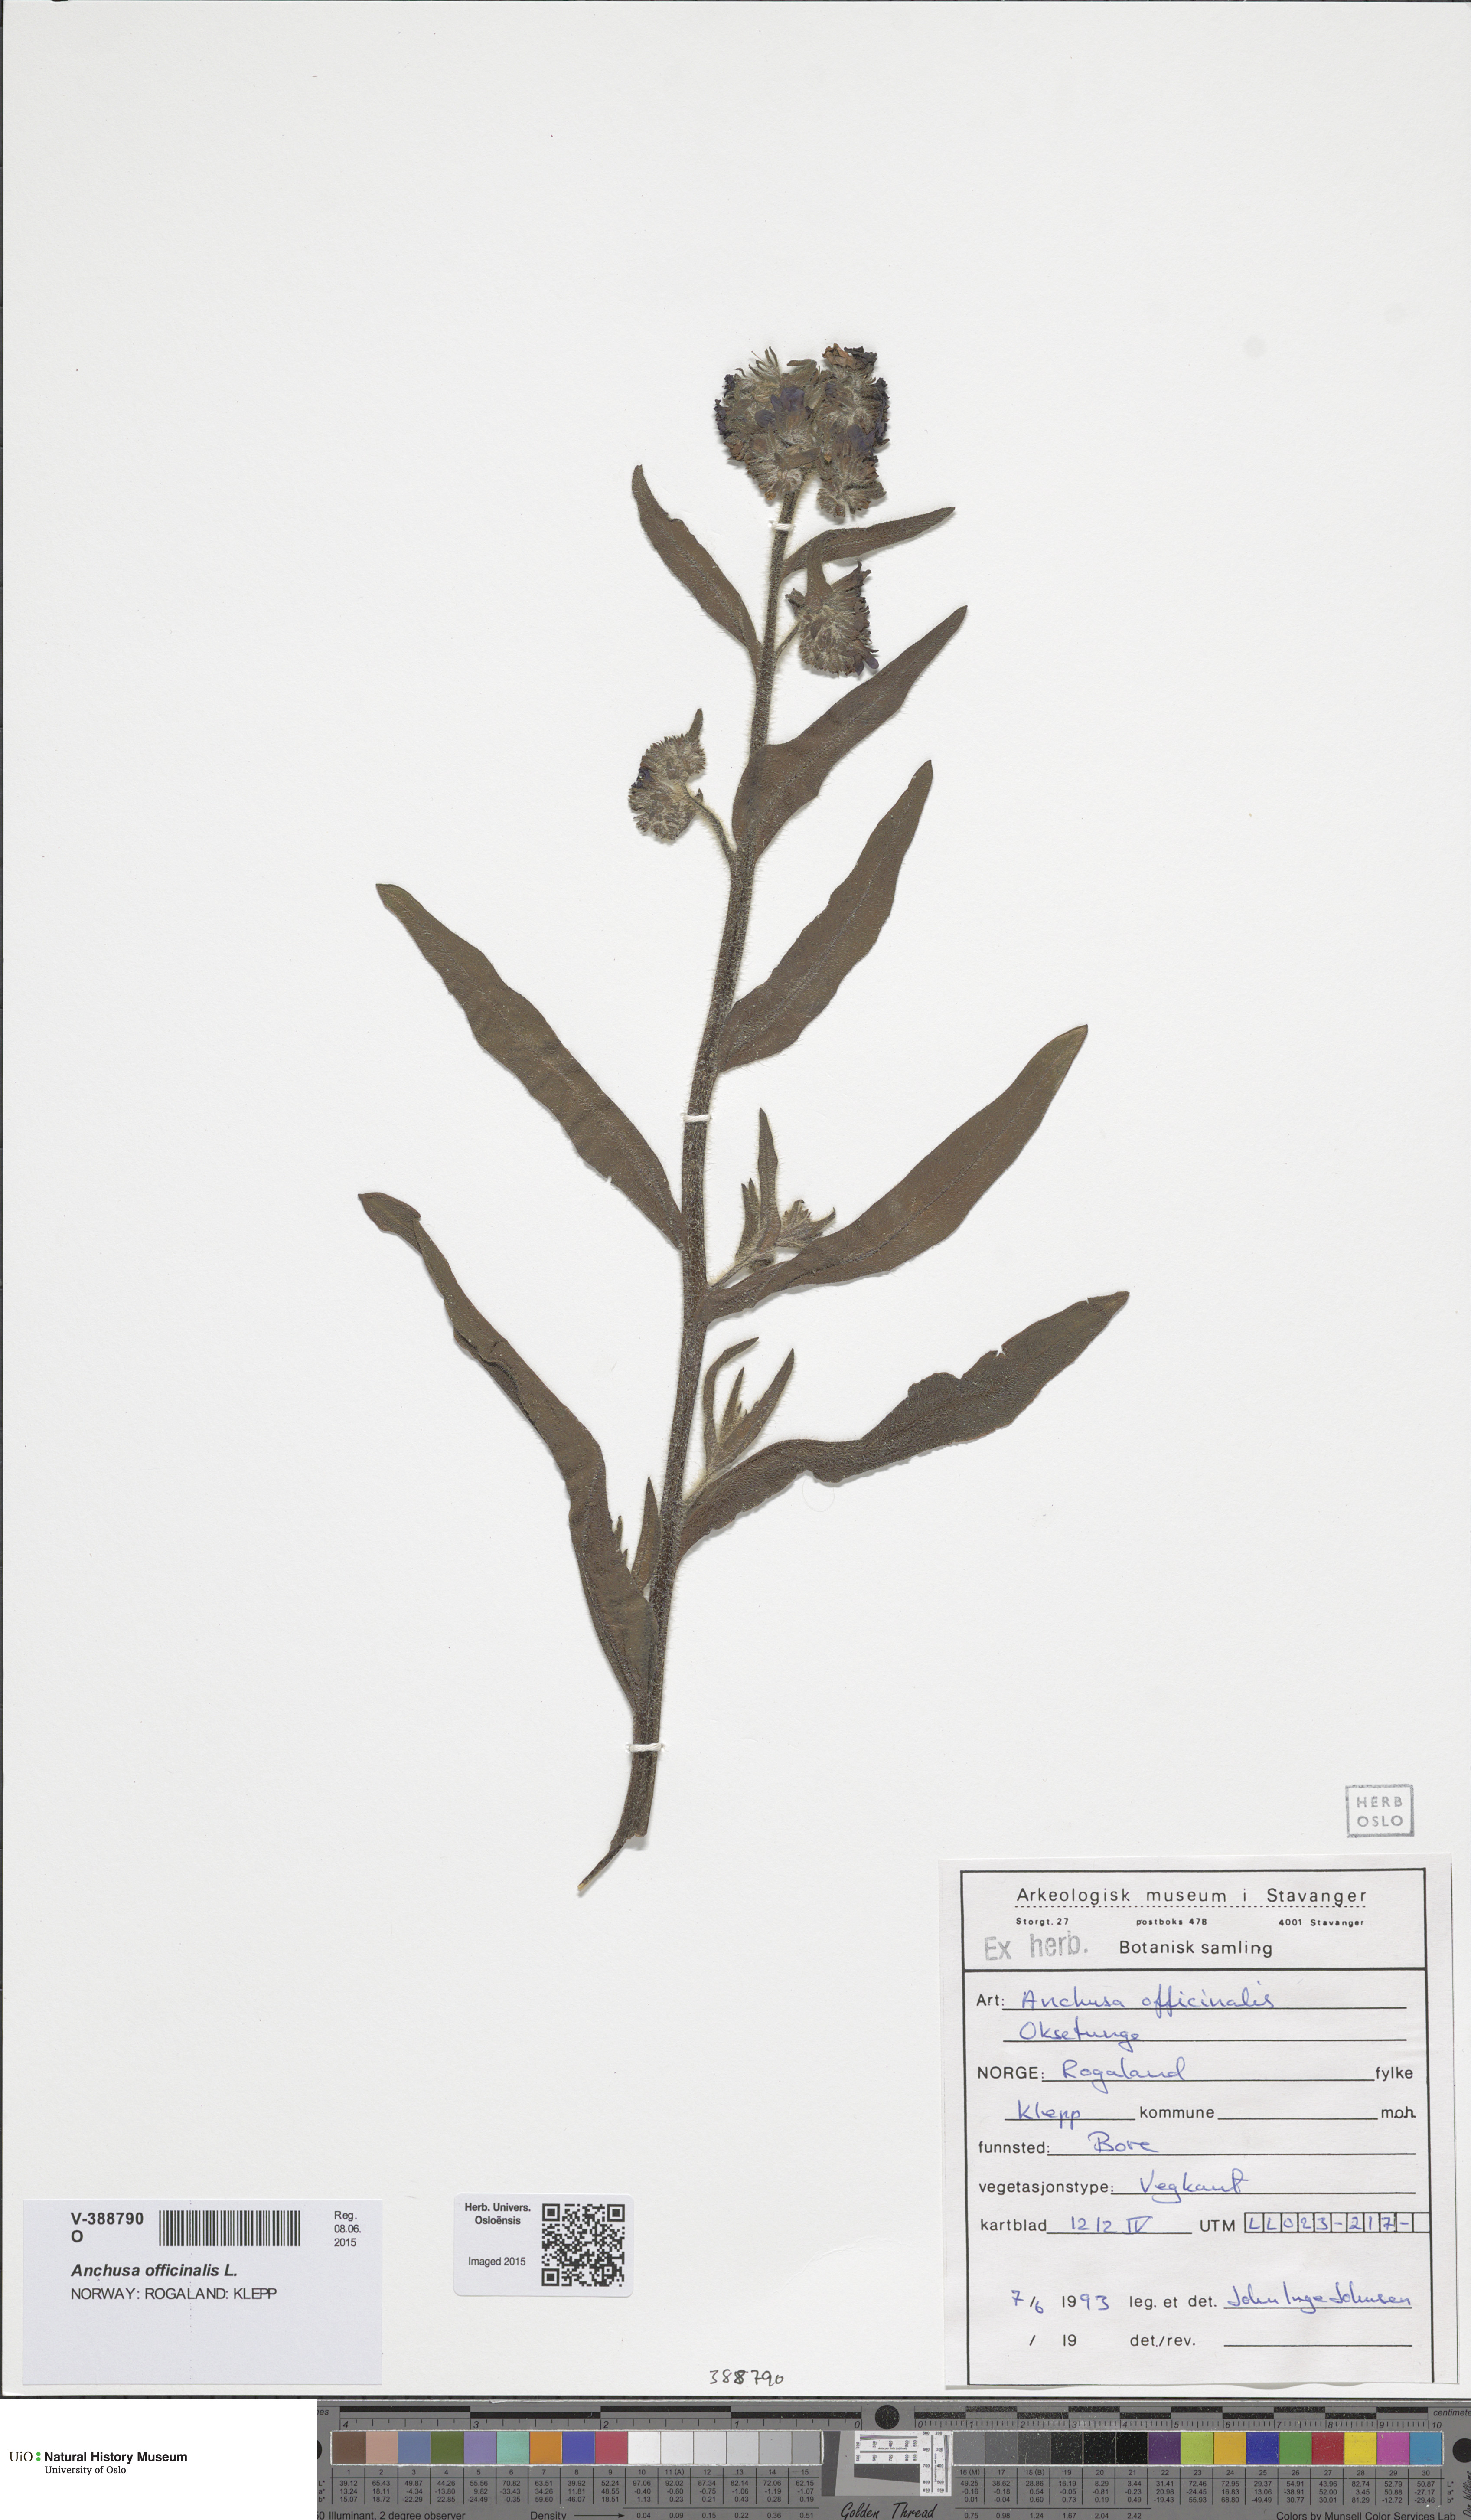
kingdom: Plantae
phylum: Tracheophyta
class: Magnoliopsida
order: Boraginales
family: Boraginaceae
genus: Anchusa
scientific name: Anchusa officinalis
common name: Alkanet
